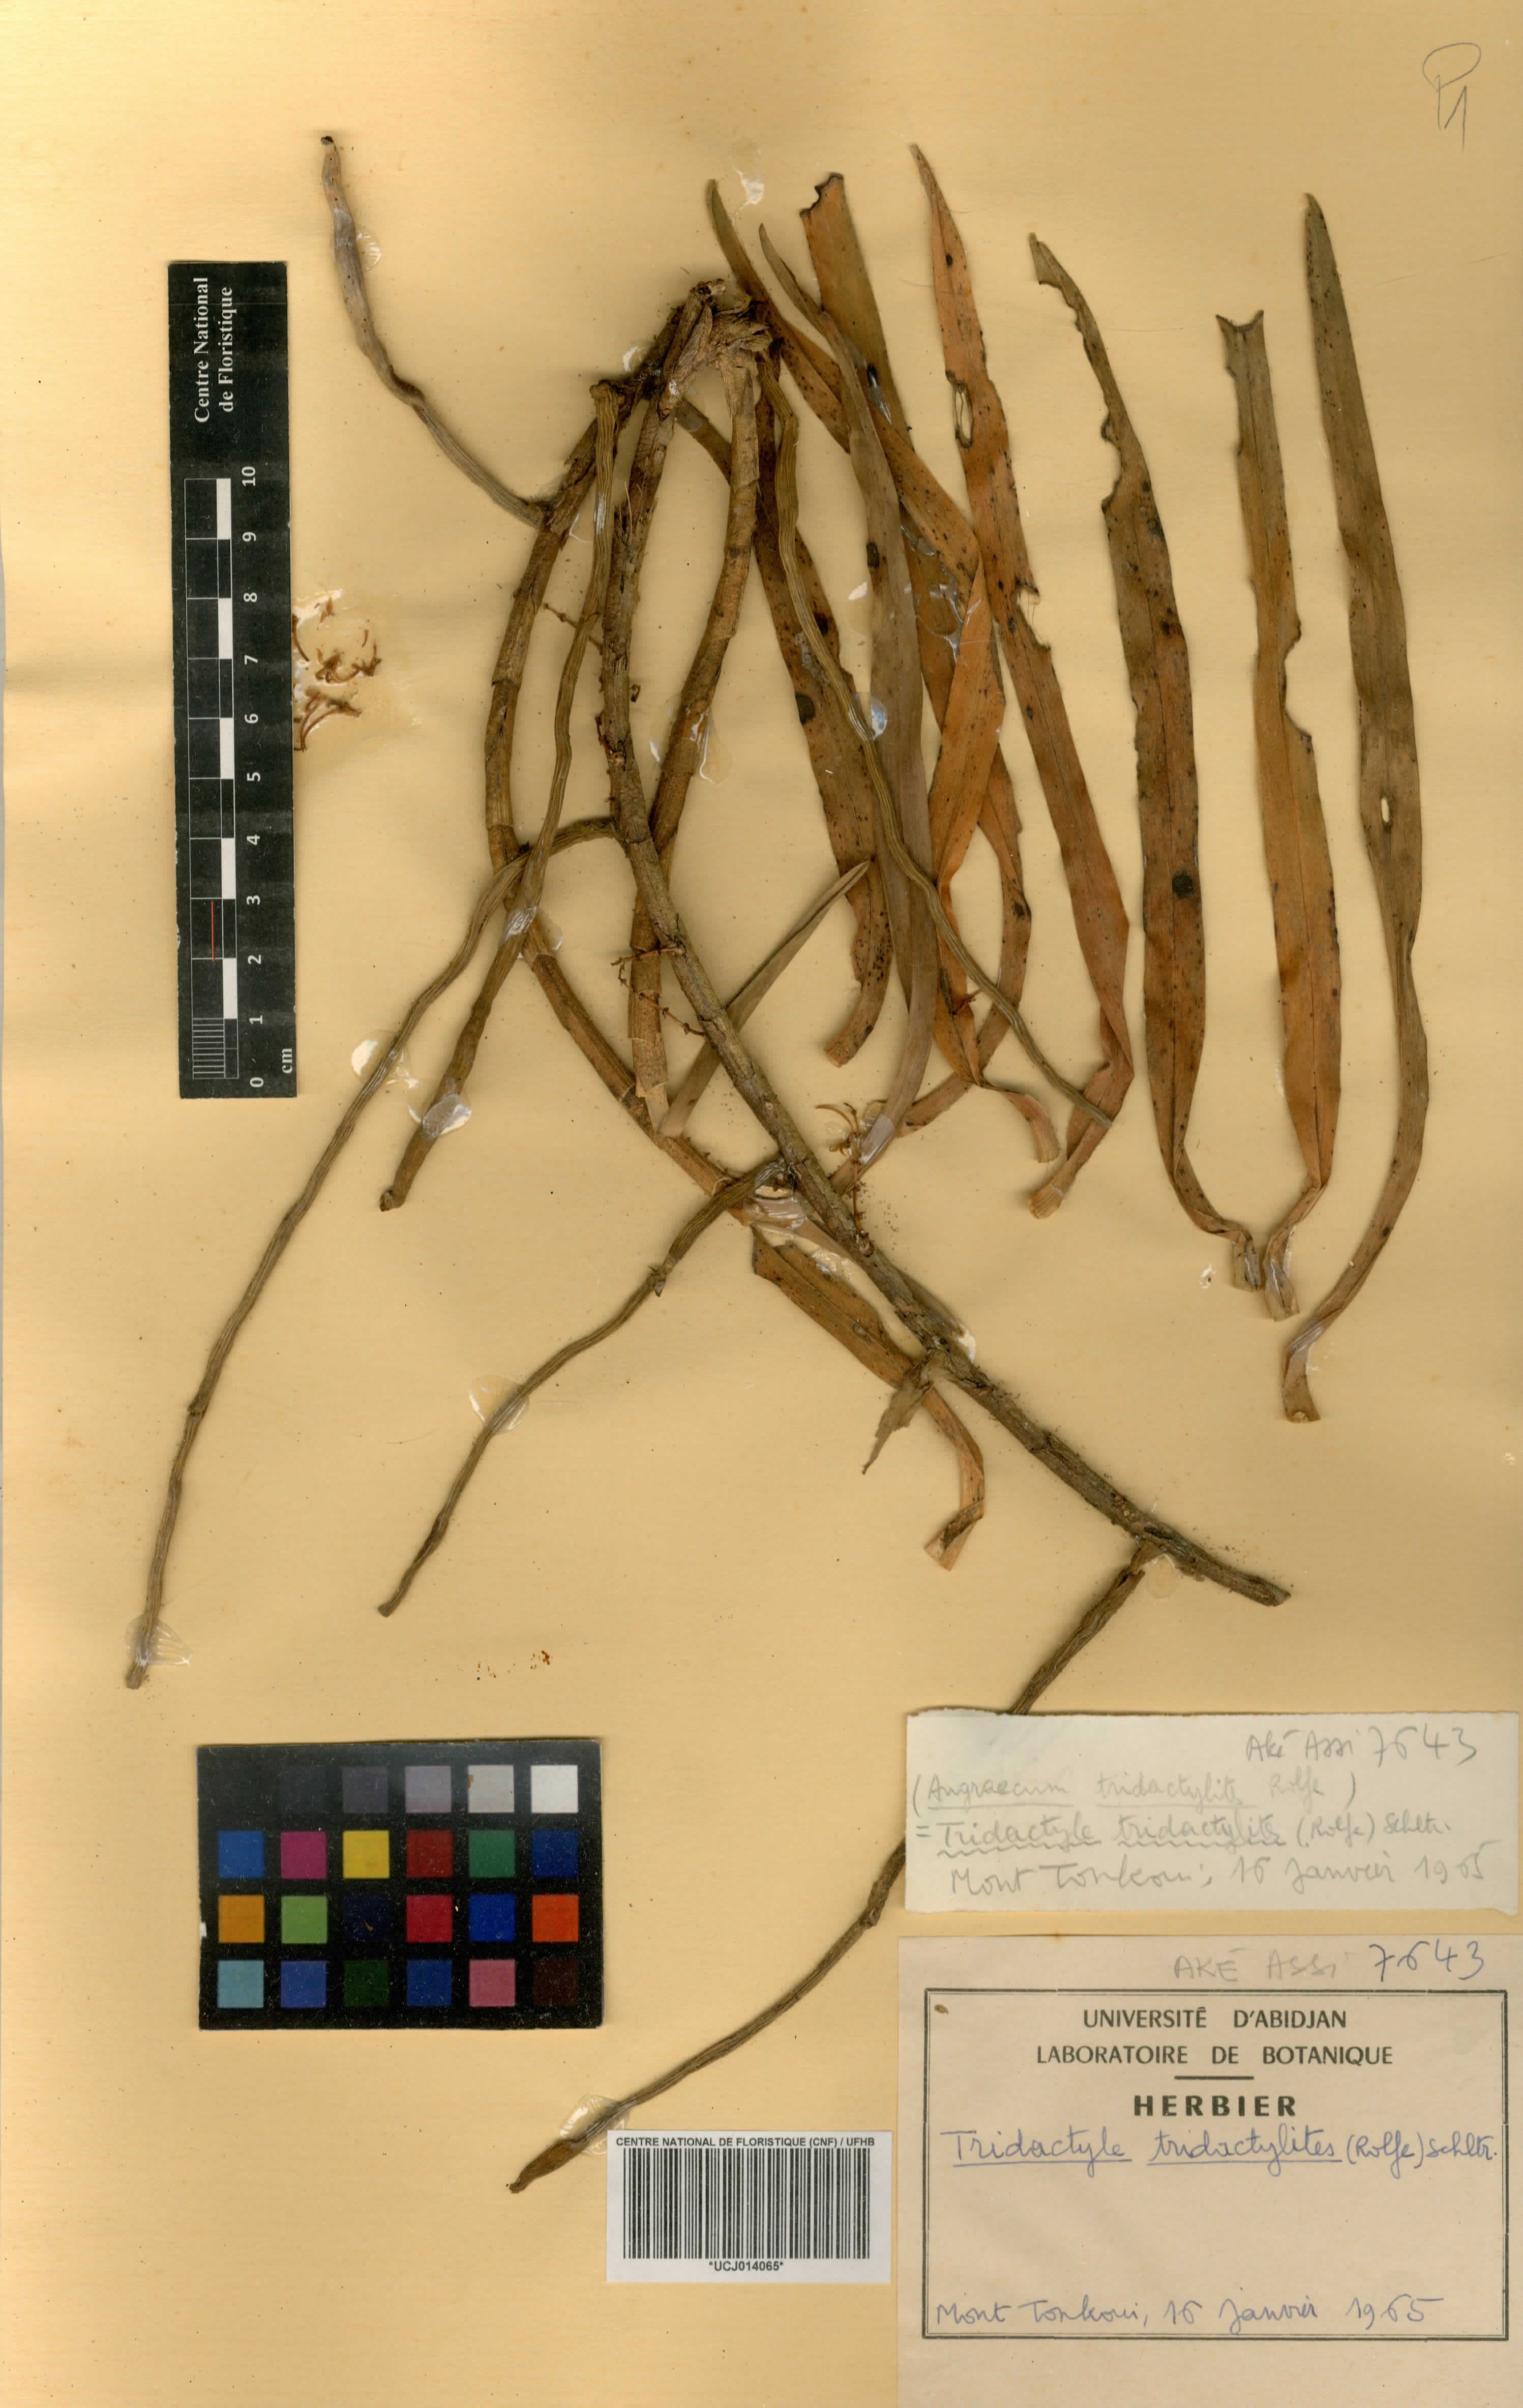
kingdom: Plantae
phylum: Tracheophyta
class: Liliopsida
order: Asparagales
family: Orchidaceae
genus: Tridactyle
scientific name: Tridactyle tridactylites
